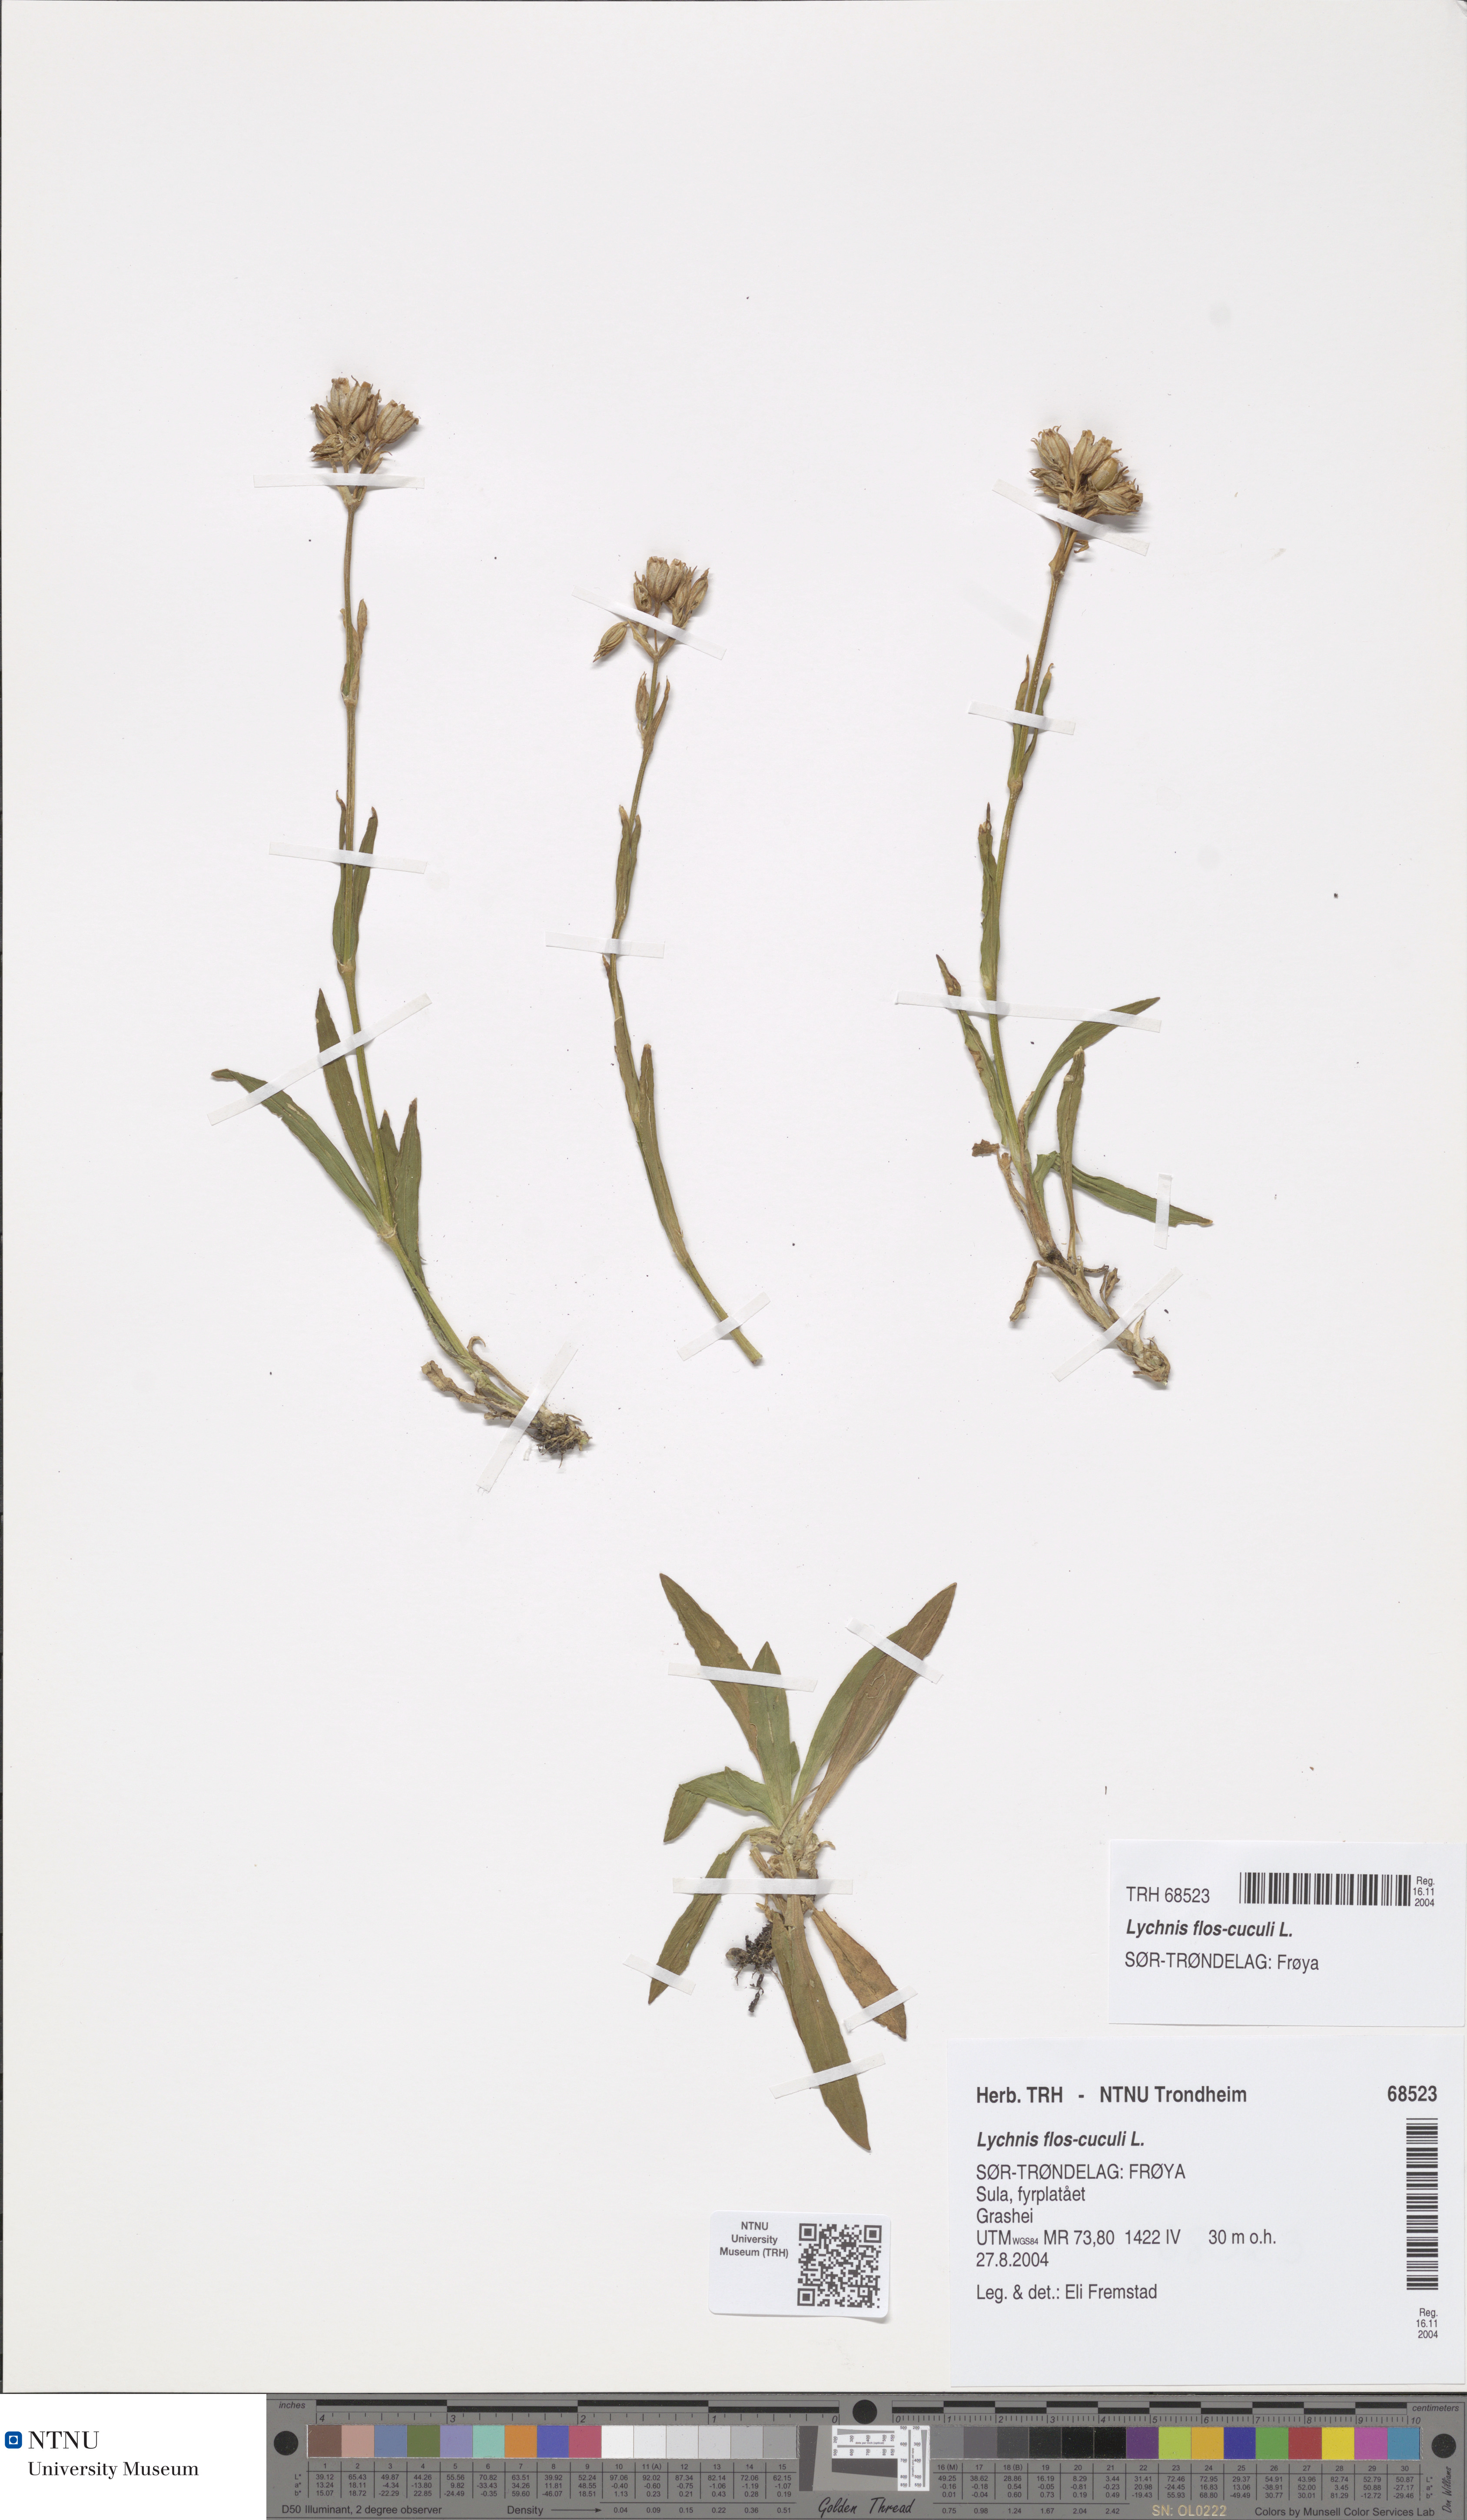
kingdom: Plantae
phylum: Tracheophyta
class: Magnoliopsida
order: Caryophyllales
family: Caryophyllaceae
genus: Silene
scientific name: Silene flos-cuculi
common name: Ragged-robin
